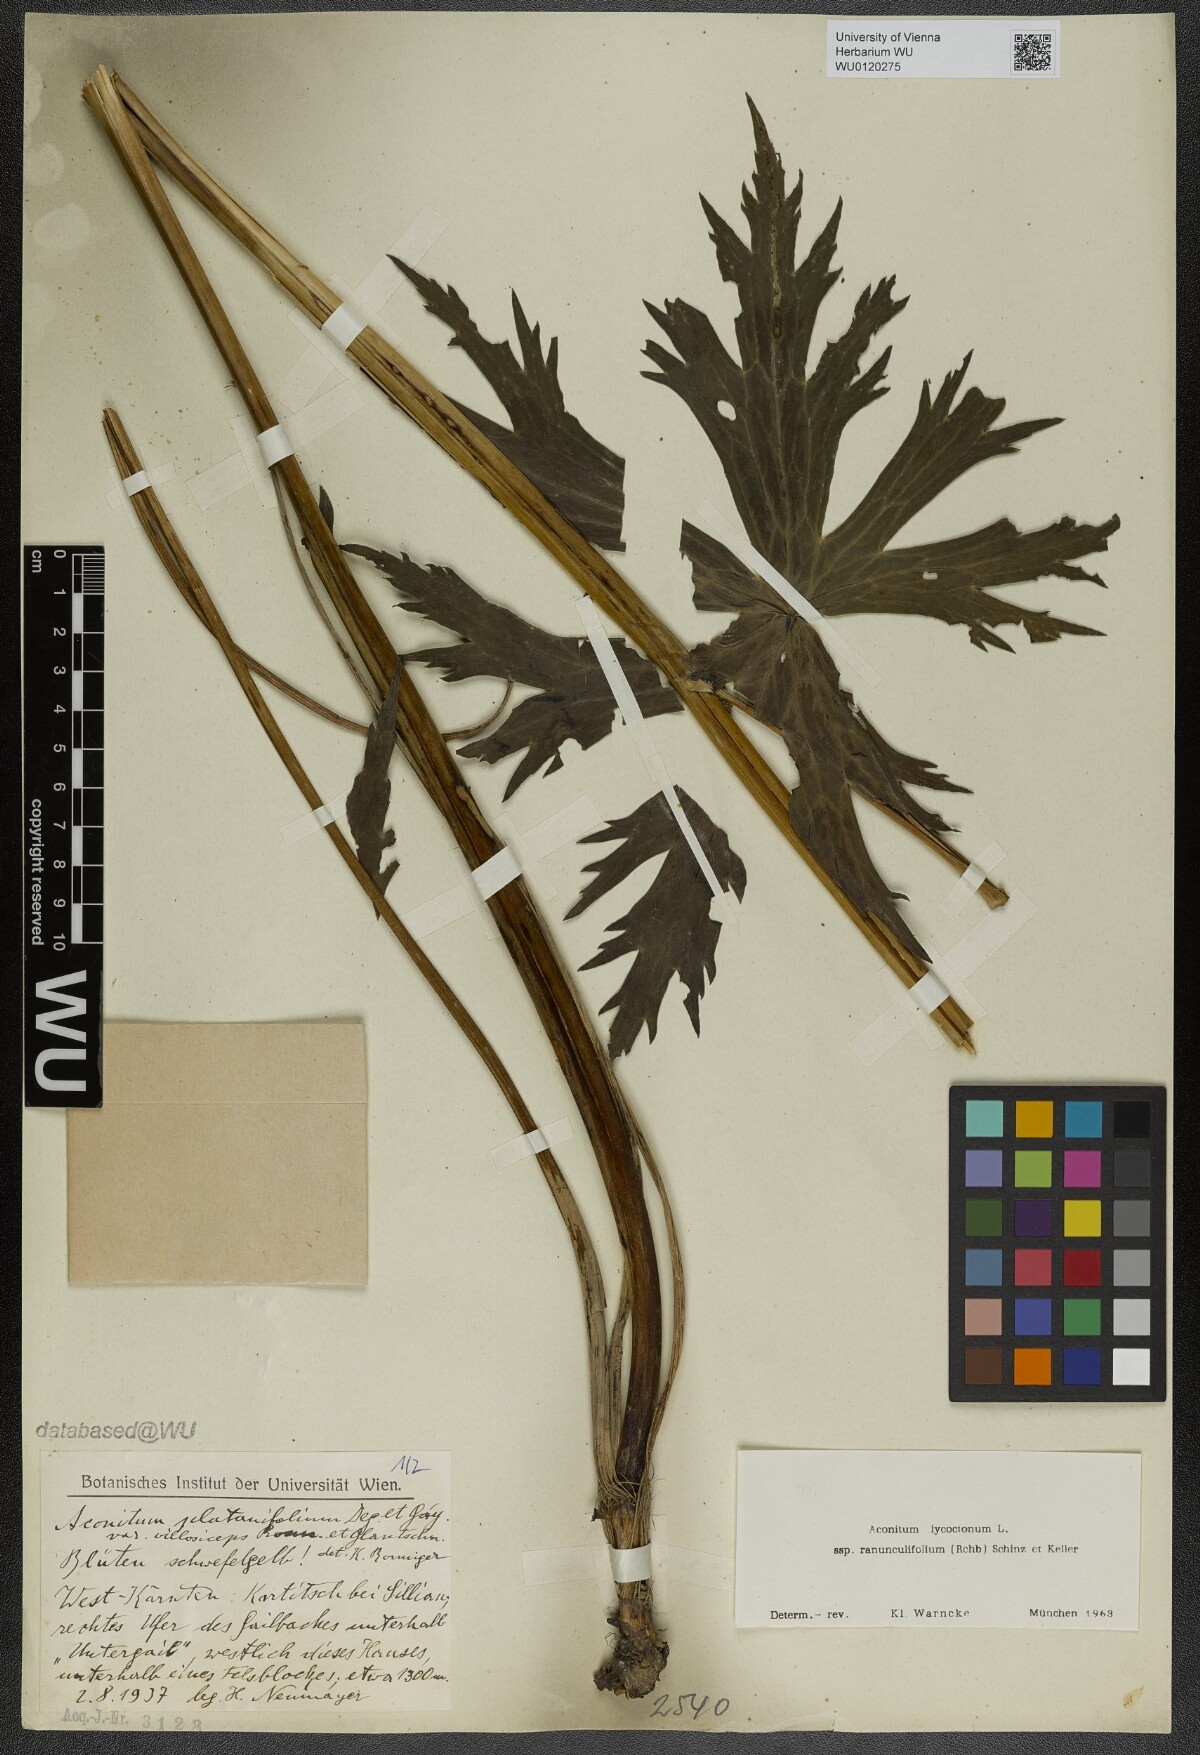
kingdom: Plantae
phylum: Tracheophyta
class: Magnoliopsida
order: Ranunculales
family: Ranunculaceae
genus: Aconitum
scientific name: Aconitum lycoctonum
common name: Wolf's-bane
